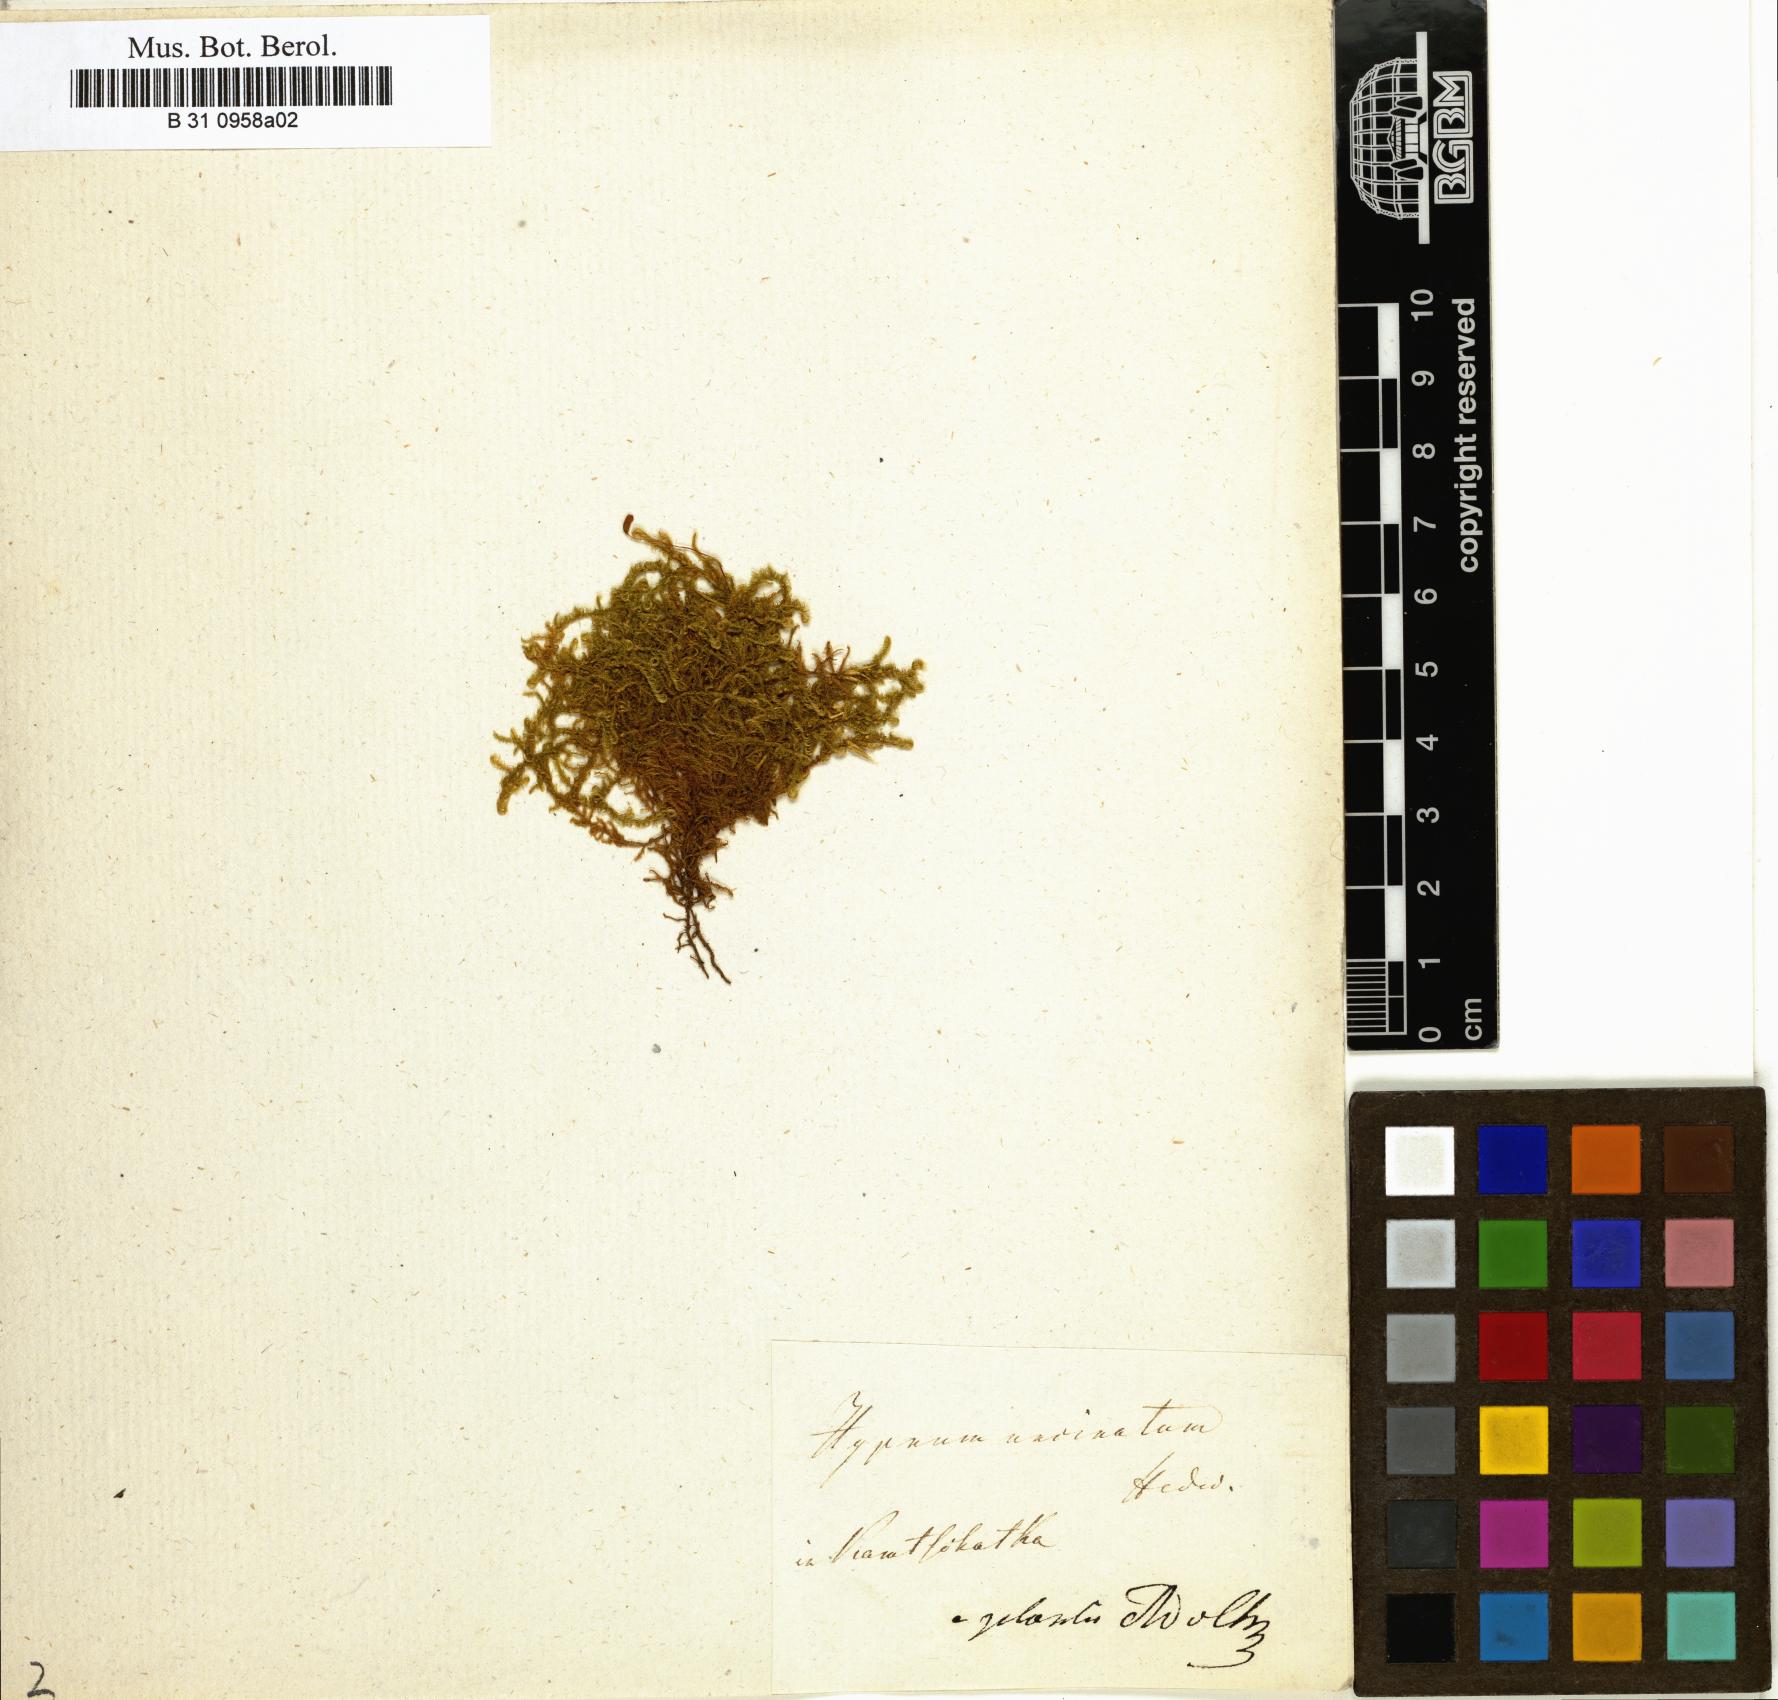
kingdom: Plantae
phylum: Bryophyta
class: Bryopsida
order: Hypnales
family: Scorpidiaceae
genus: Sanionia
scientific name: Sanionia uncinata
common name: Sickle moss
